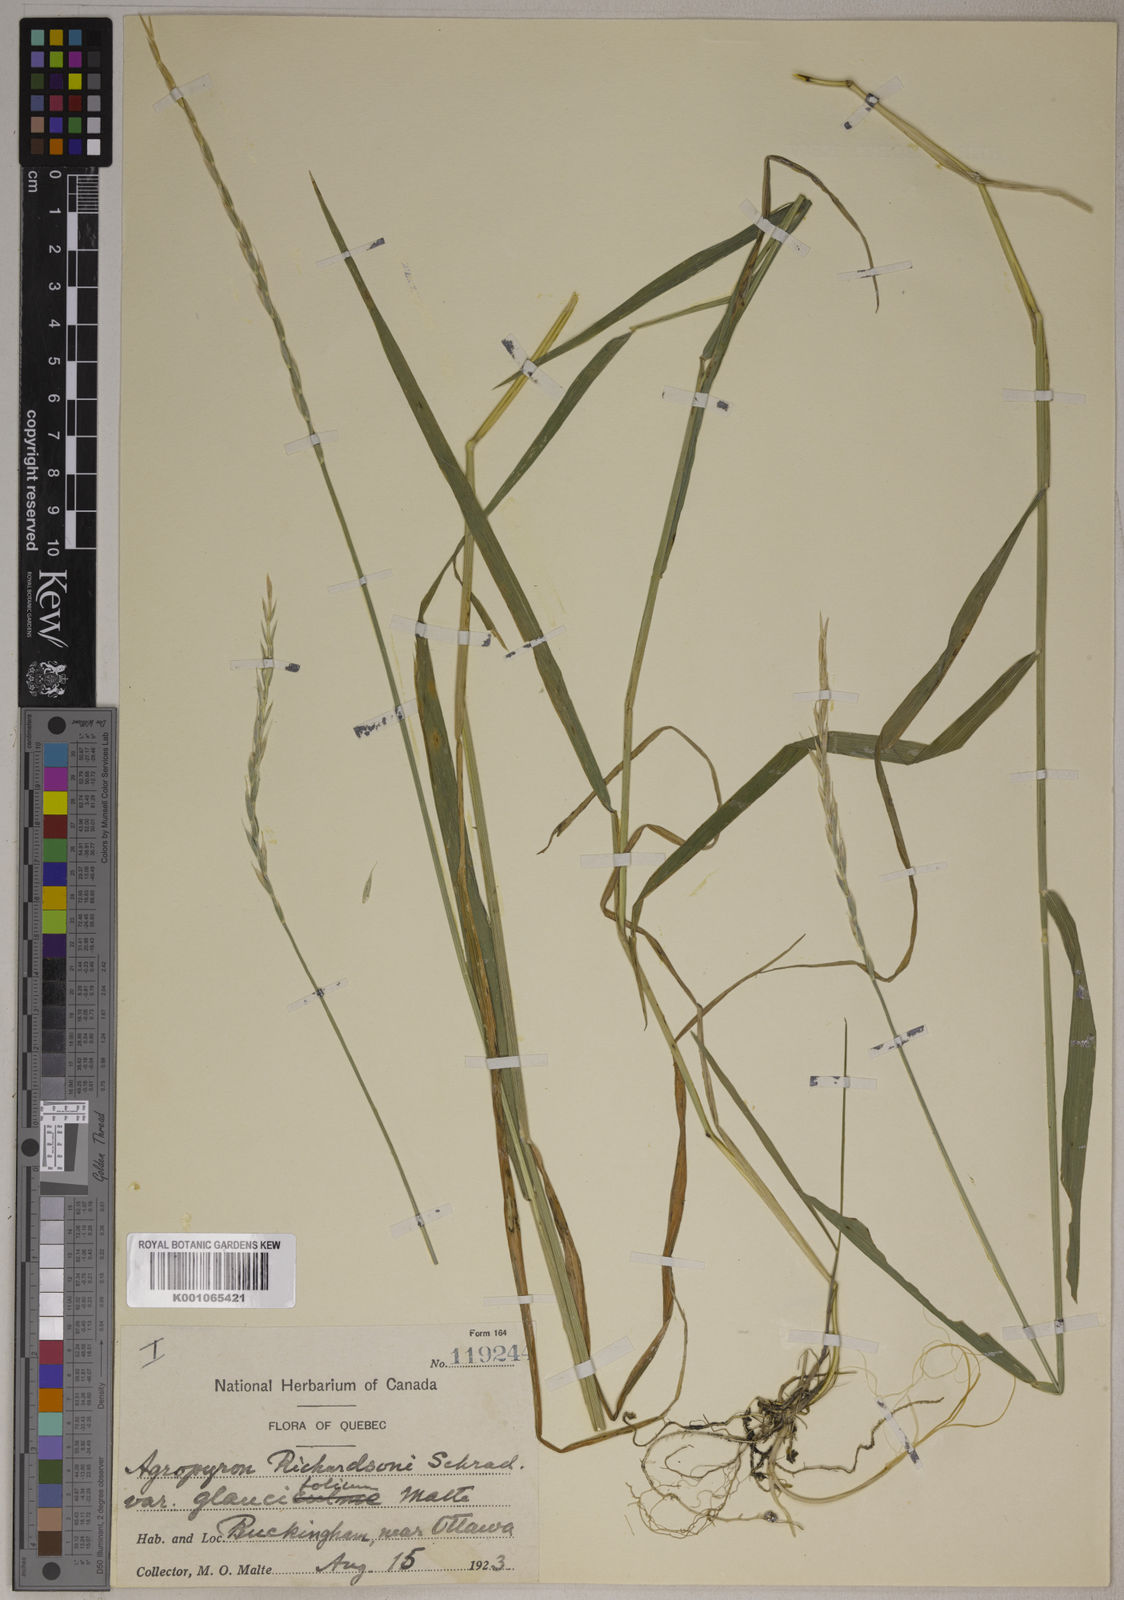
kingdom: Plantae
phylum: Tracheophyta
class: Liliopsida
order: Poales
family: Poaceae
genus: Elymus
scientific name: Elymus
